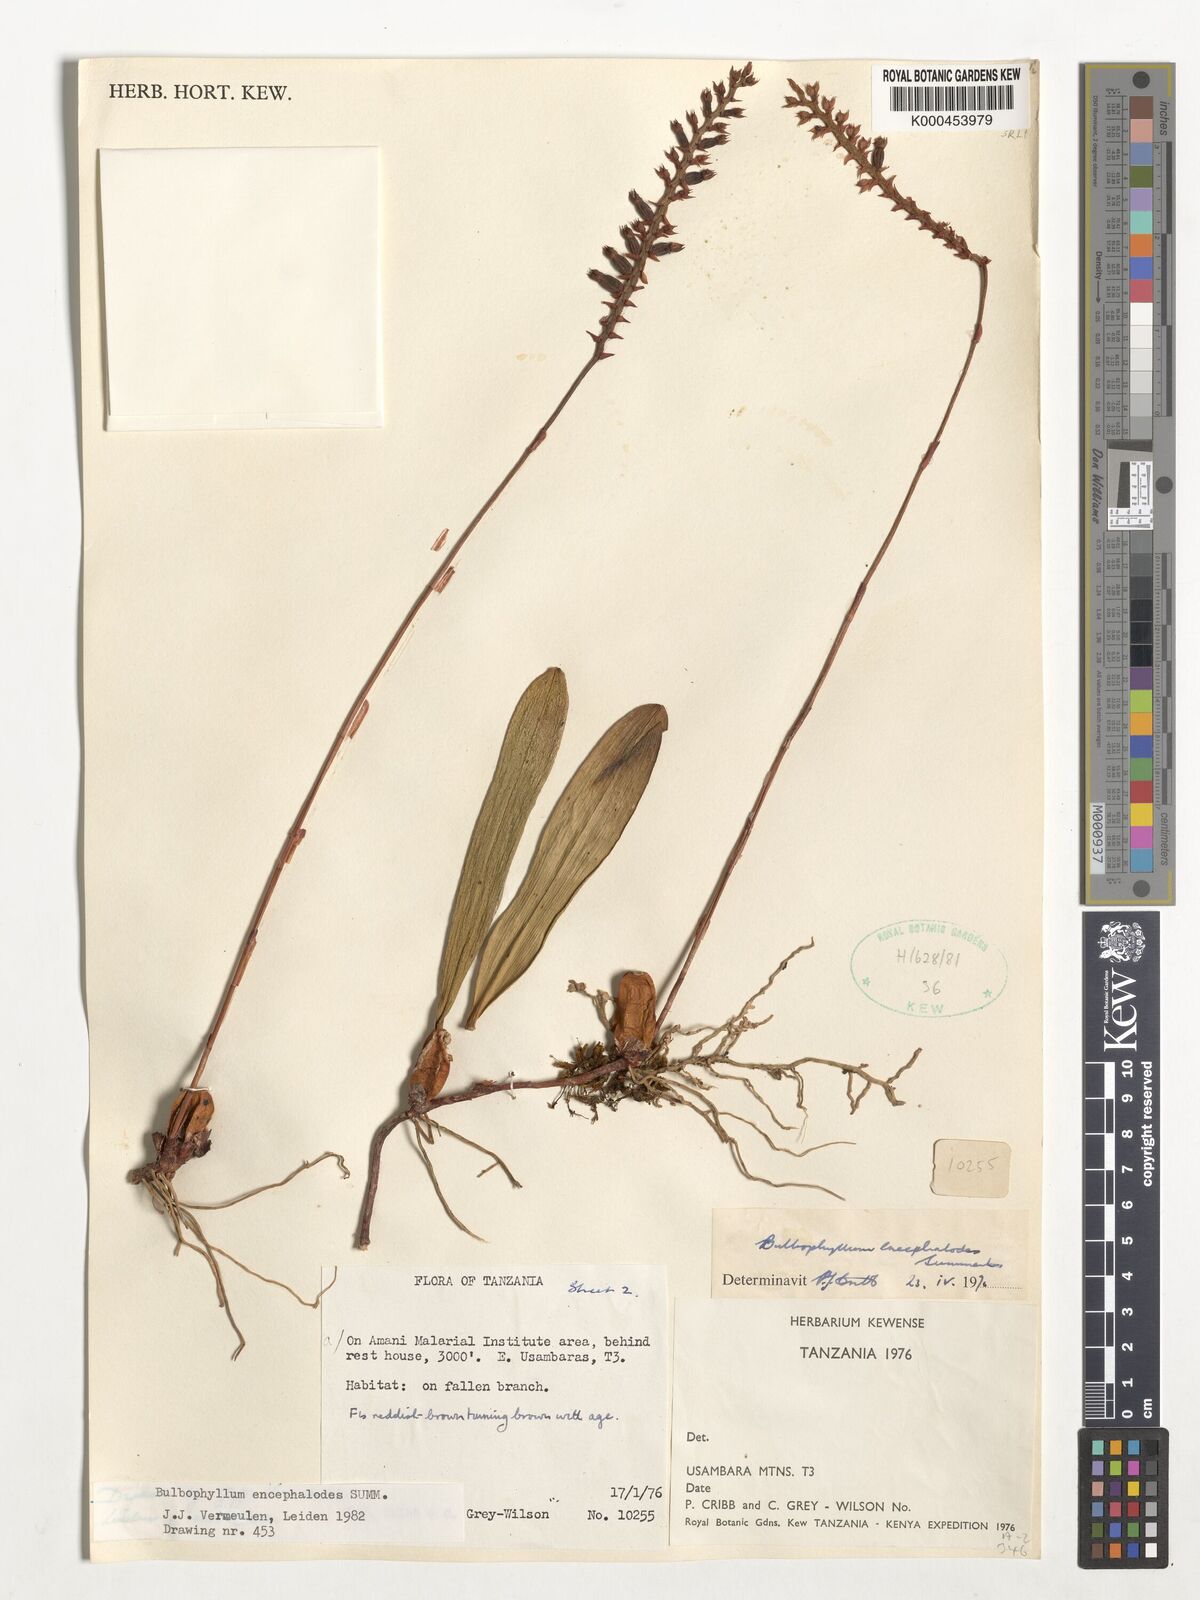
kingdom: Plantae
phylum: Tracheophyta
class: Liliopsida
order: Asparagales
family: Orchidaceae
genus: Bulbophyllum
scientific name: Bulbophyllum encephalodes
